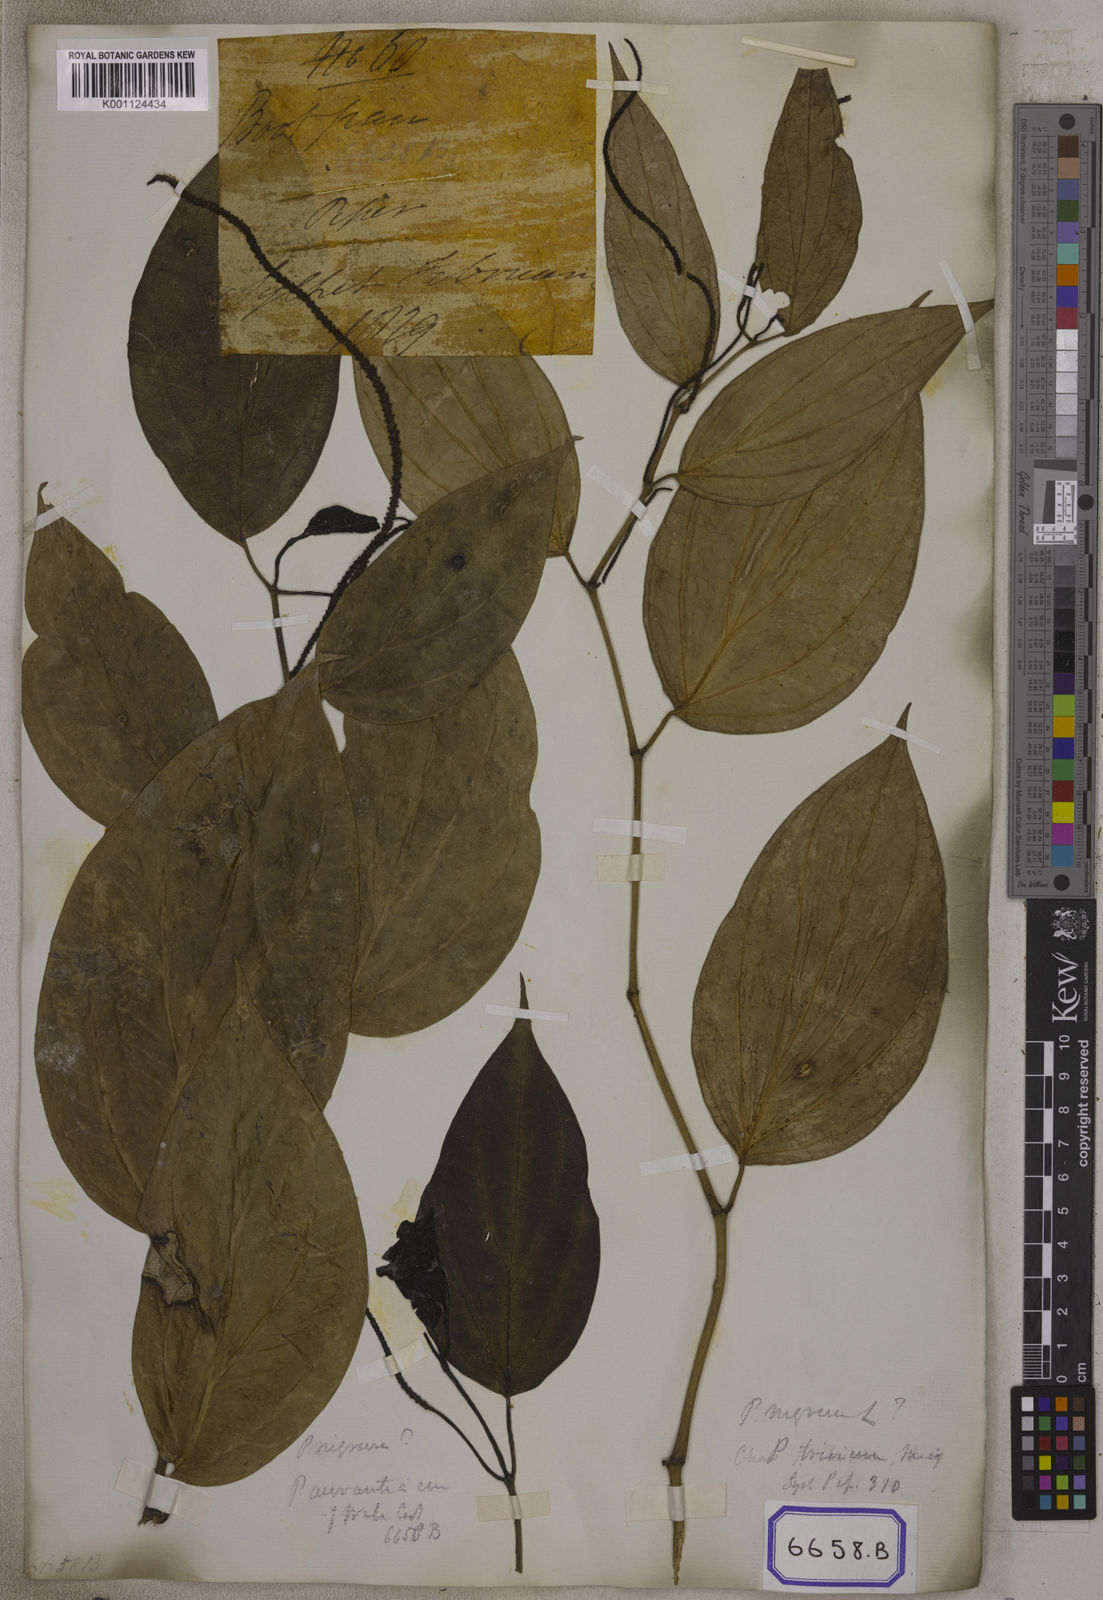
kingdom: Plantae
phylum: Tracheophyta
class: Magnoliopsida
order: Piperales
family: Piperaceae
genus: Piper
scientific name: Piper wallichii
